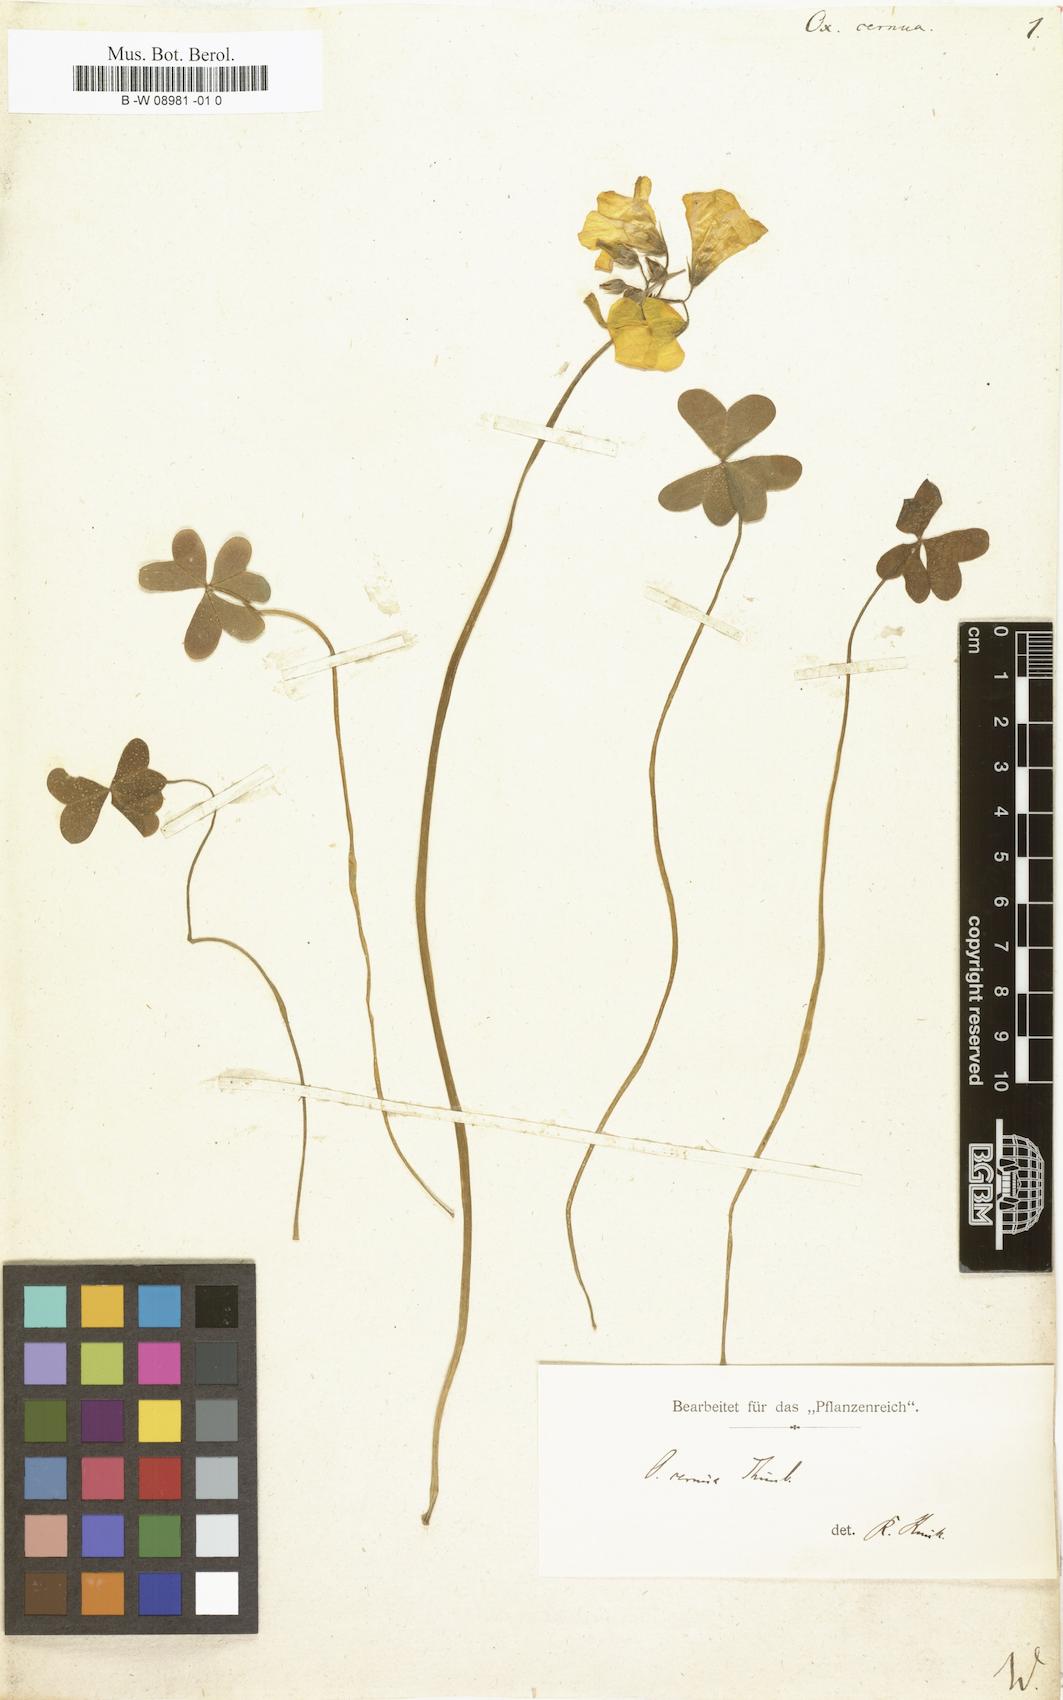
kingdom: Plantae
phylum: Tracheophyta
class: Magnoliopsida
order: Oxalidales
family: Oxalidaceae
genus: Oxalis
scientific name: Oxalis pes-caprae
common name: Bermuda-buttercup
